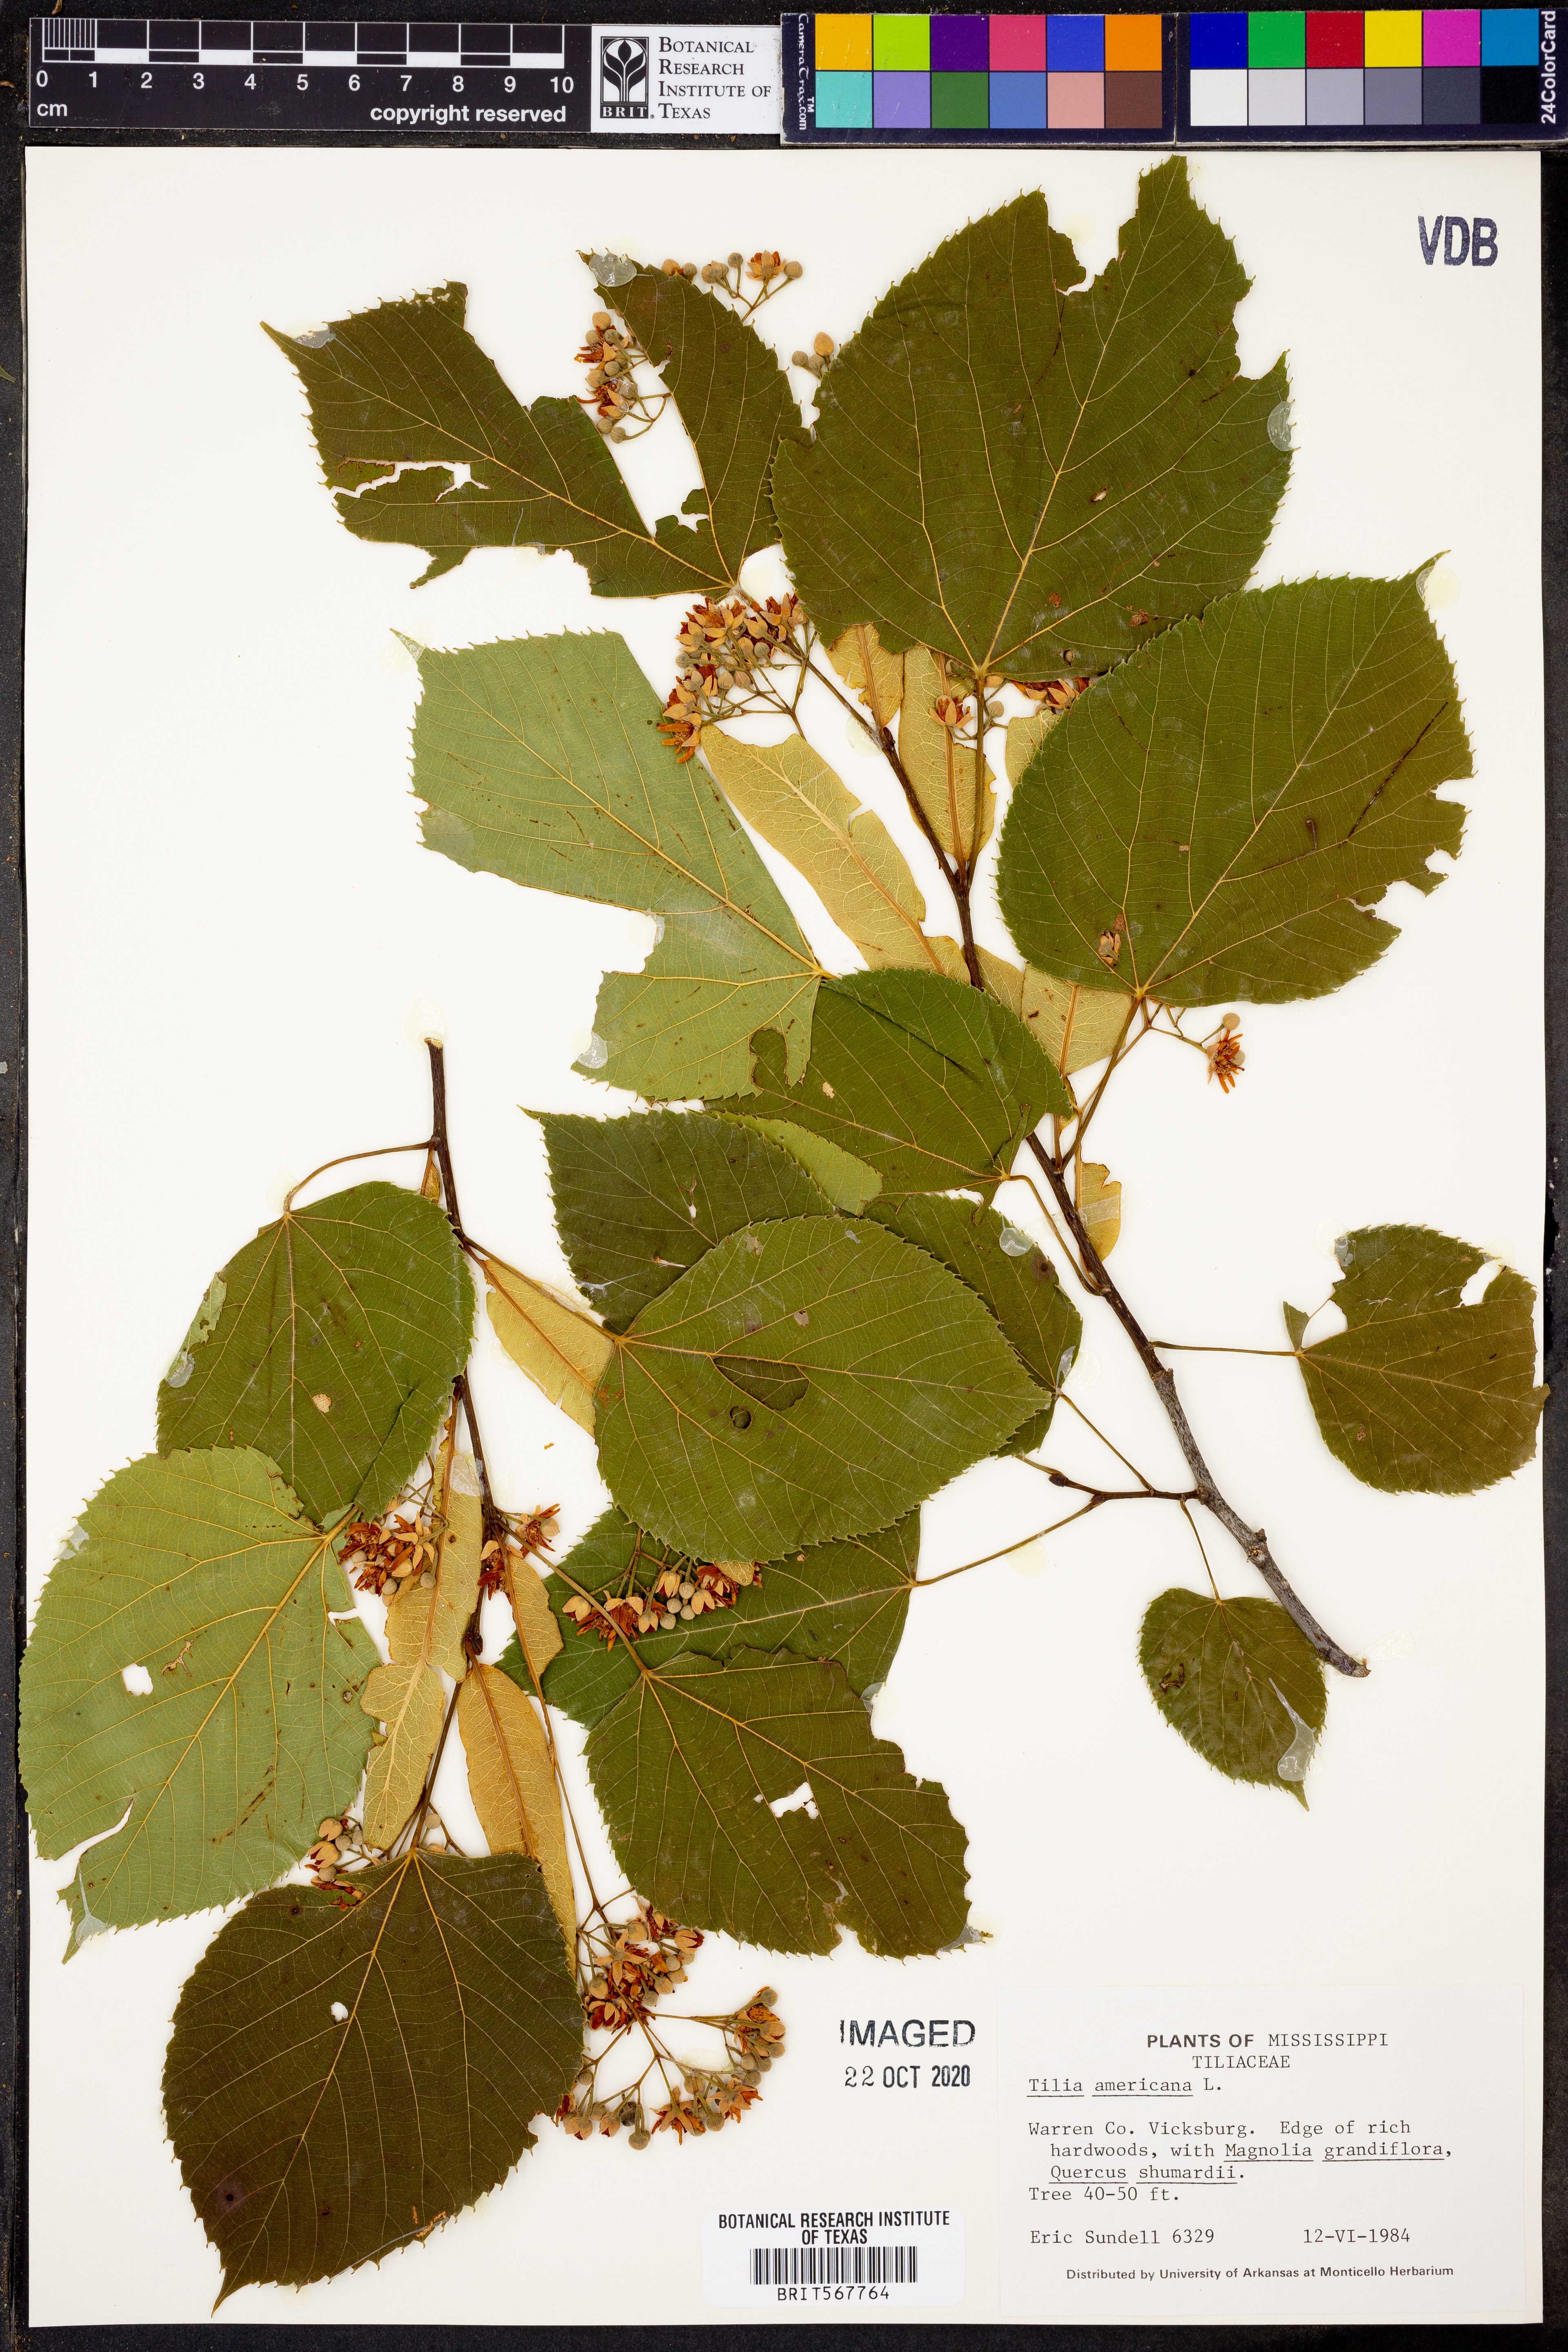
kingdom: Plantae
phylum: Tracheophyta
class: Magnoliopsida
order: Malvales
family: Malvaceae
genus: Tilia
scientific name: Tilia americana
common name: Basswood
